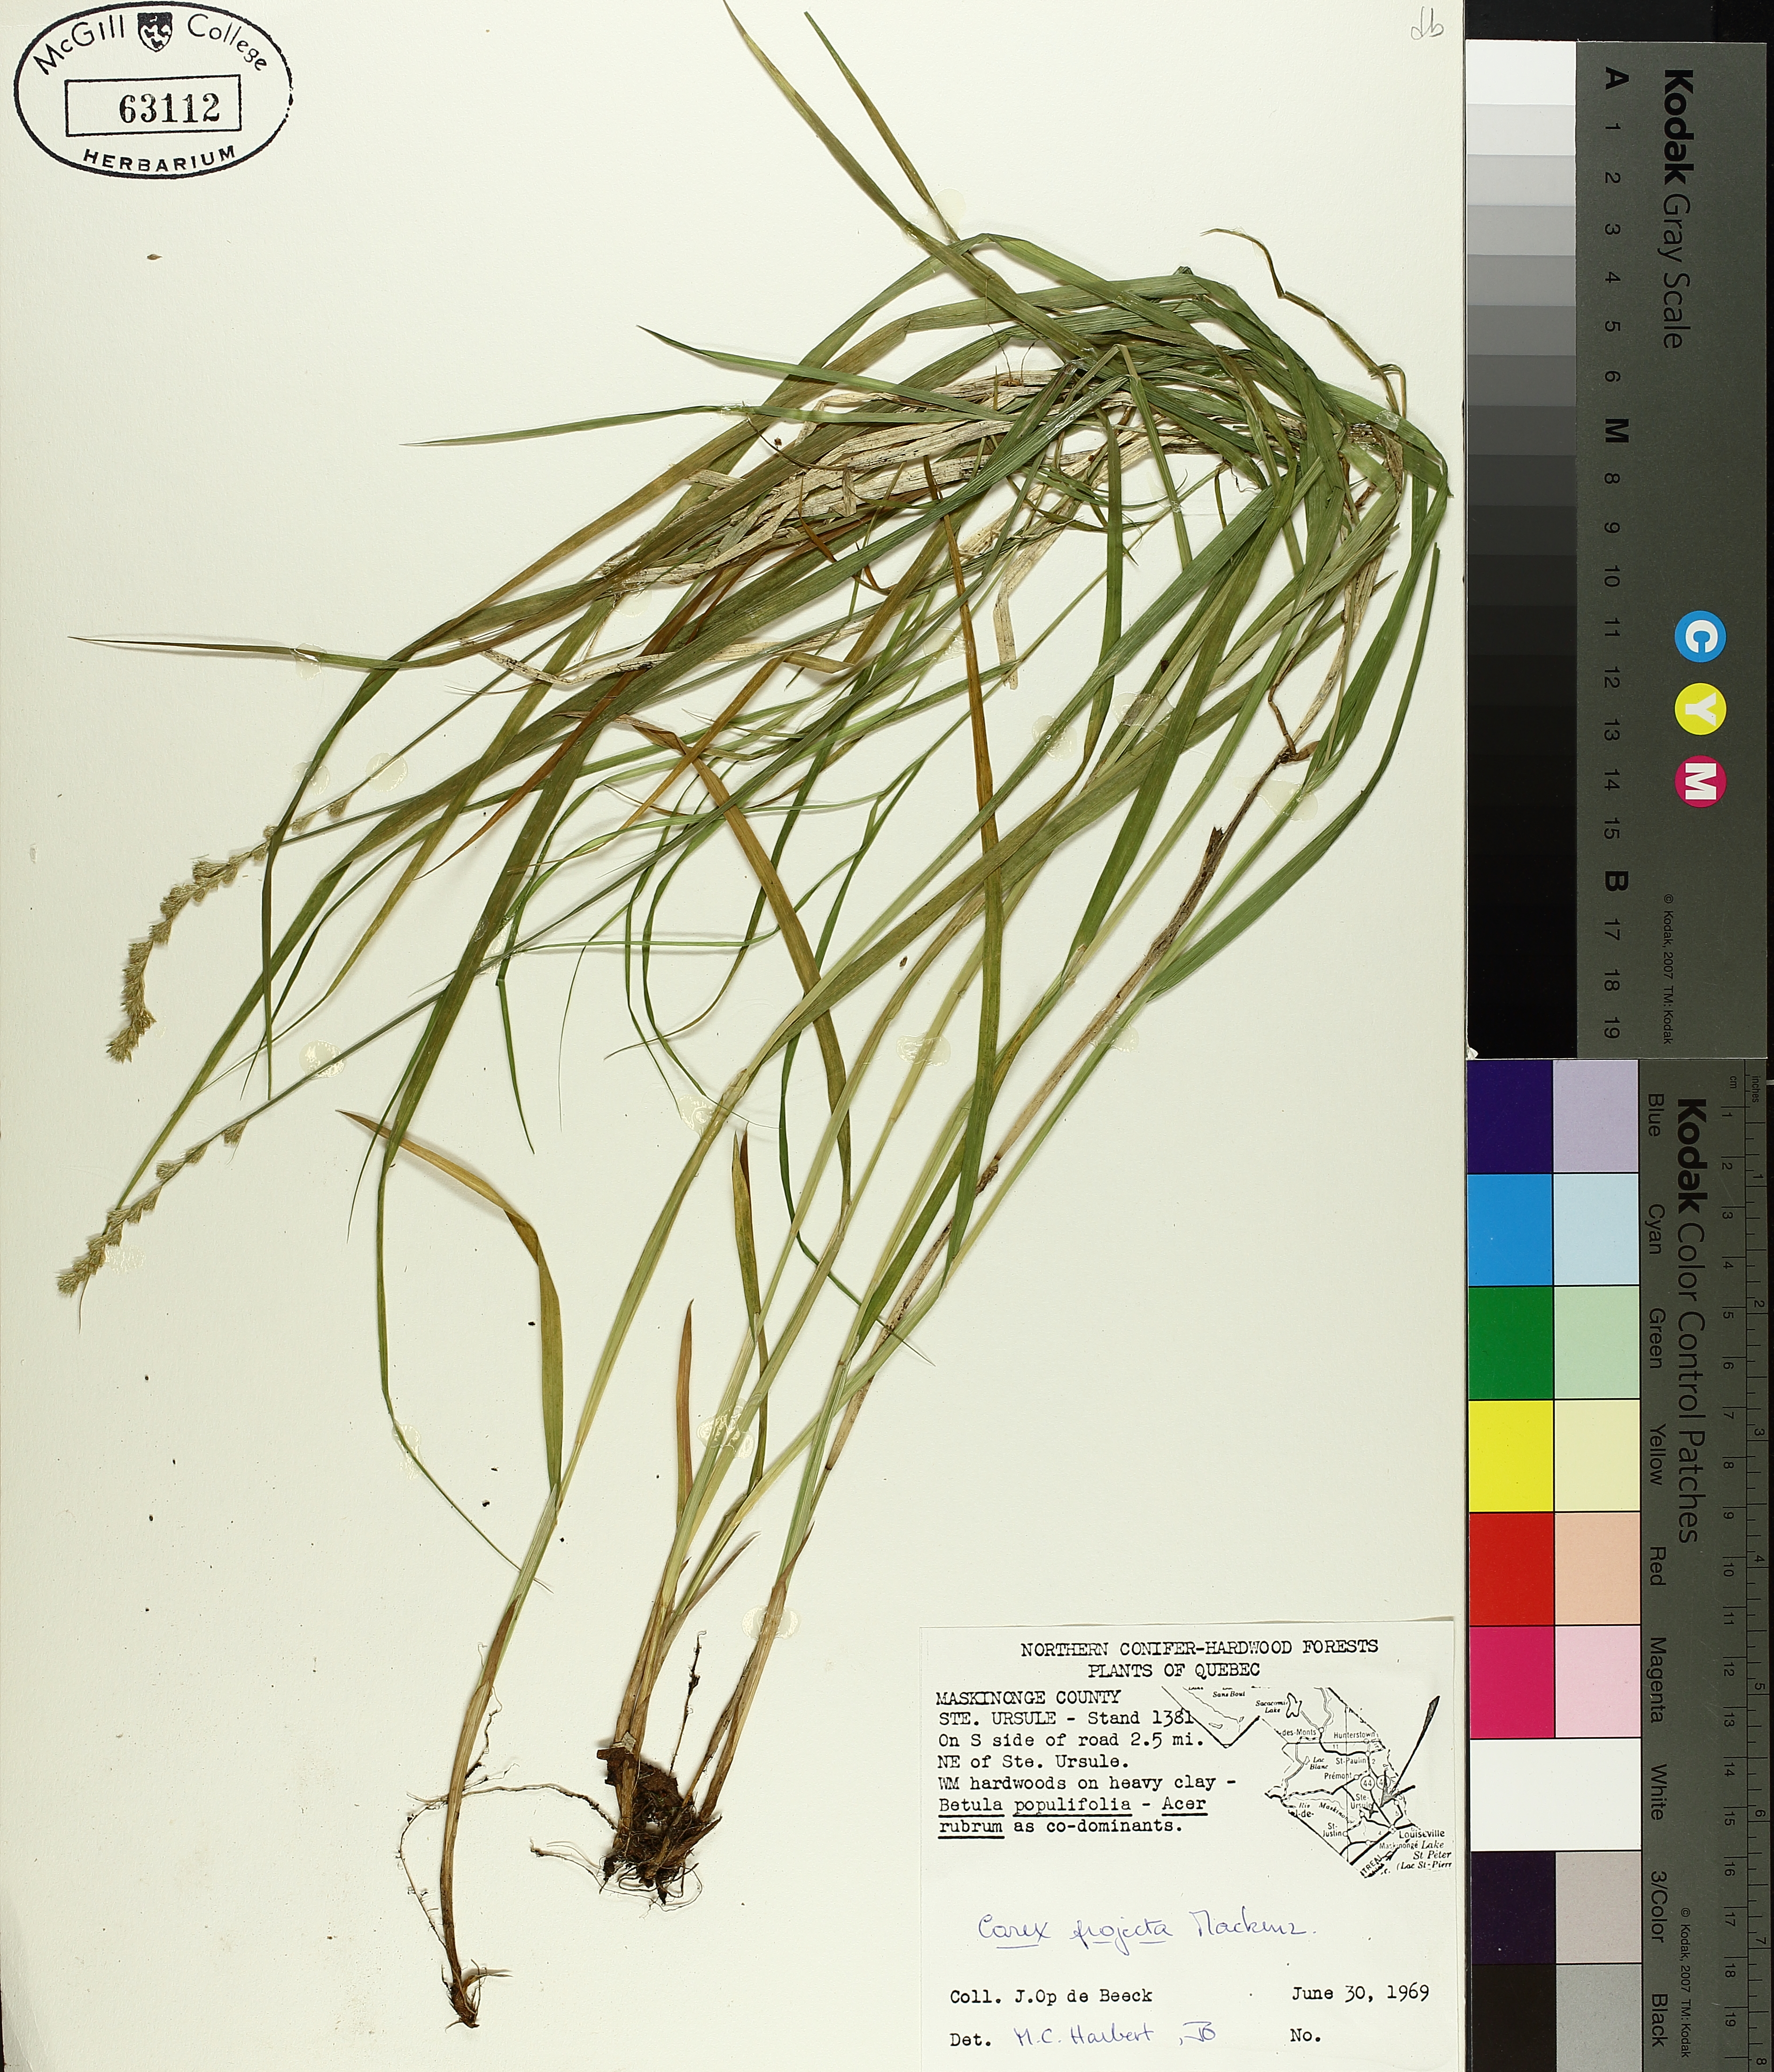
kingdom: Plantae
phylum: Tracheophyta
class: Liliopsida
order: Poales
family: Cyperaceae
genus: Carex
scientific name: Carex projecta
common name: Loose-headed oval sedge
